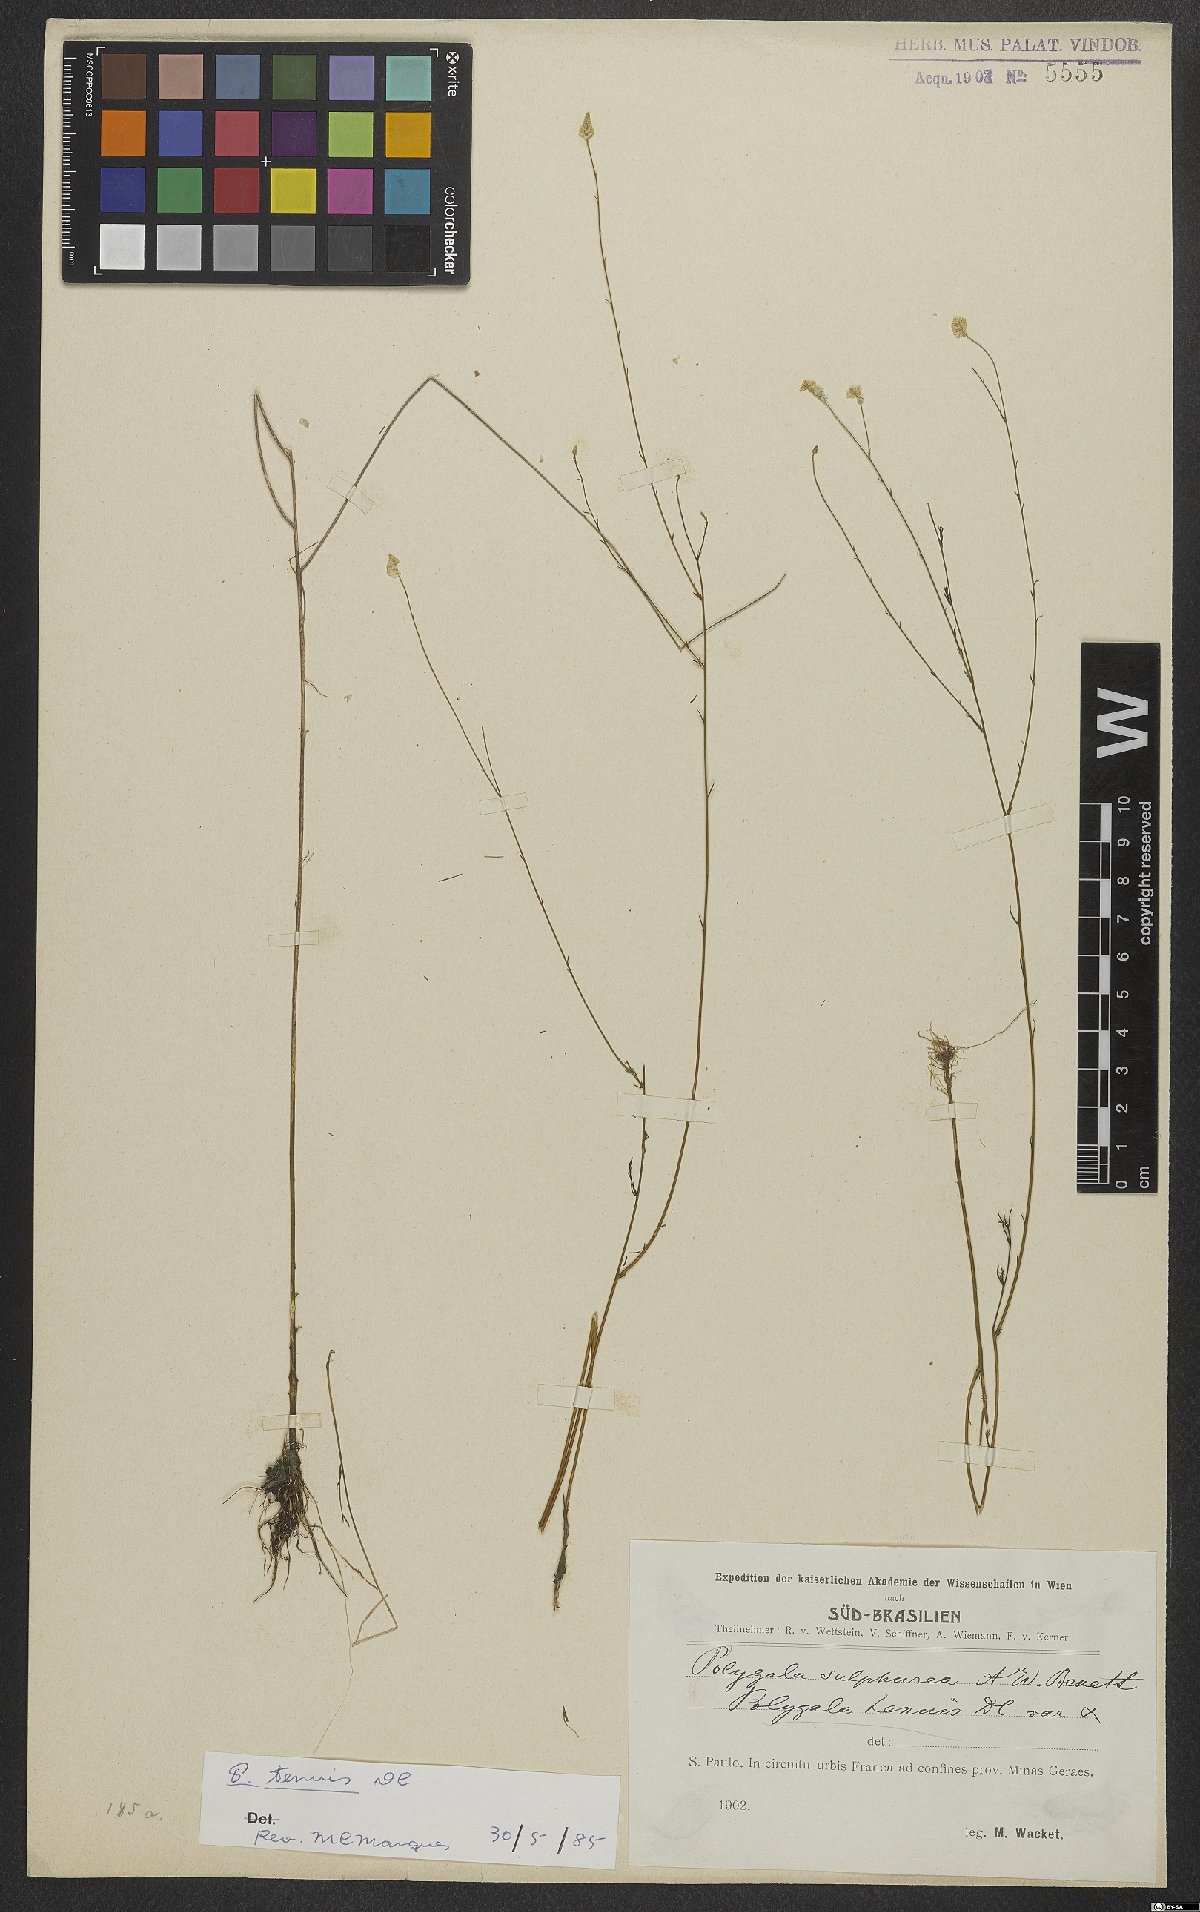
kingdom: Plantae
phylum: Tracheophyta
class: Magnoliopsida
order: Fabales
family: Polygalaceae
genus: Polygala
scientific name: Polygala rarifolia
